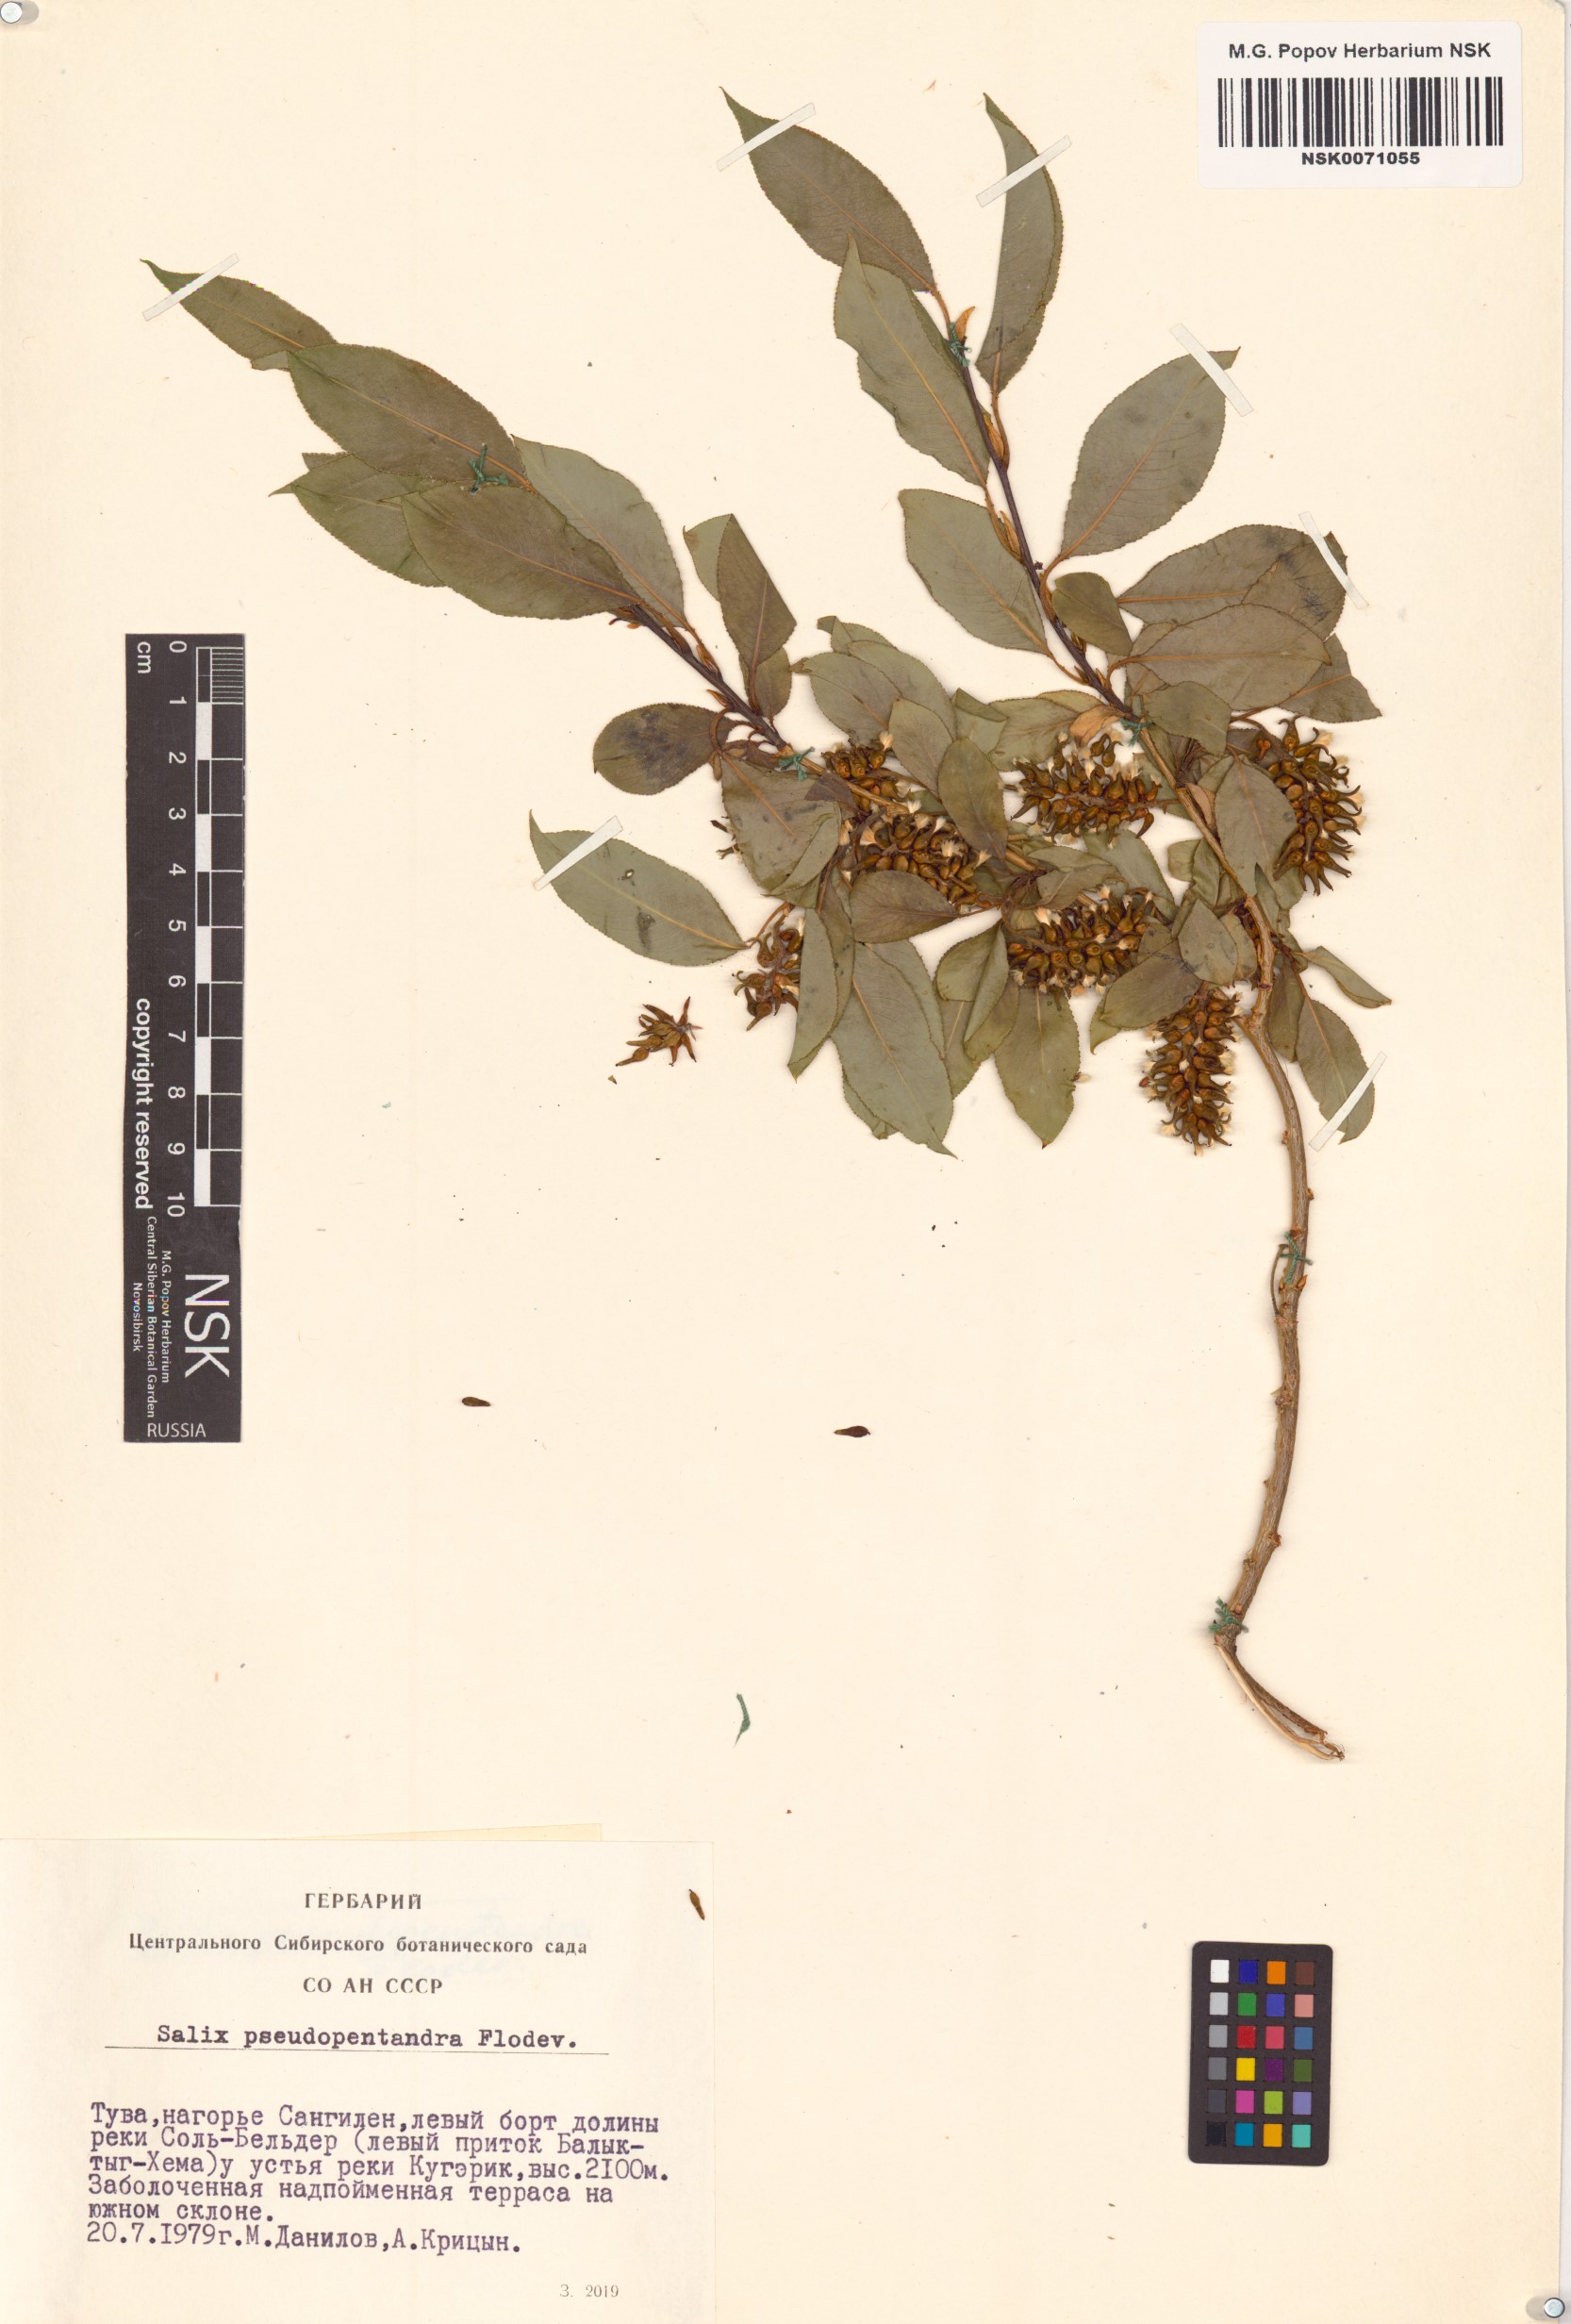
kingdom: Plantae
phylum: Tracheophyta
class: Magnoliopsida
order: Malpighiales
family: Salicaceae
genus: Salix
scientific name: Salix pseudopentandra
